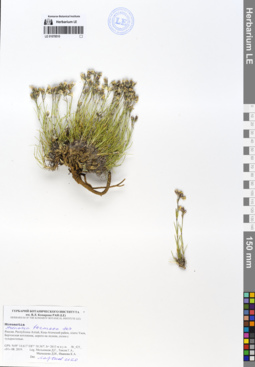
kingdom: Plantae
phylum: Tracheophyta
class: Magnoliopsida
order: Caryophyllales
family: Caryophyllaceae
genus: Eremogone
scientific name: Eremogone formosa
